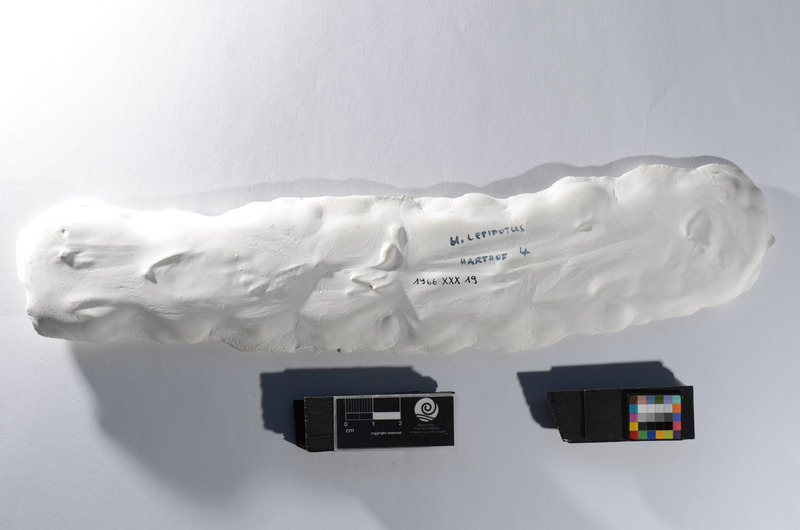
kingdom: Animalia
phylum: Chordata
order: Amiiformes
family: Amiidae
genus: Amiopsis
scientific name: Amiopsis lepidota
